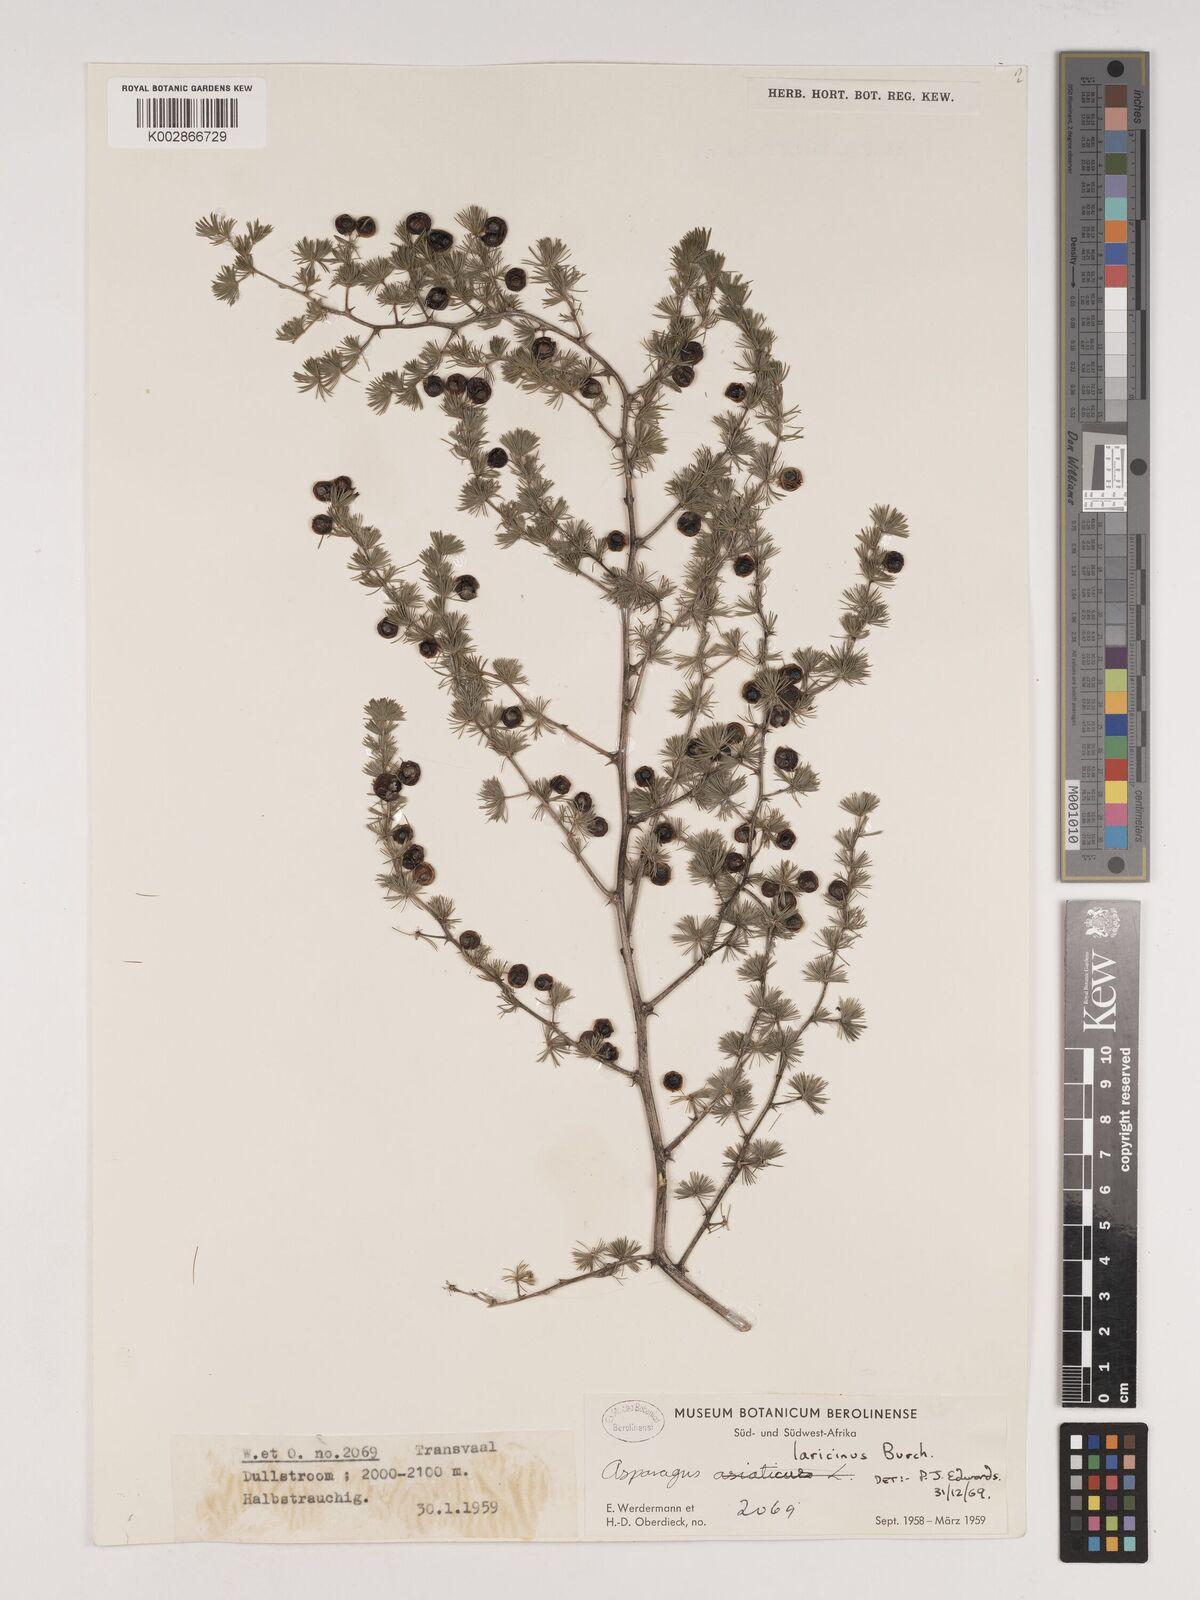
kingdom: Plantae
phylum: Tracheophyta
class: Liliopsida
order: Asparagales
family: Asparagaceae
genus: Asparagus
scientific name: Asparagus laricinus
